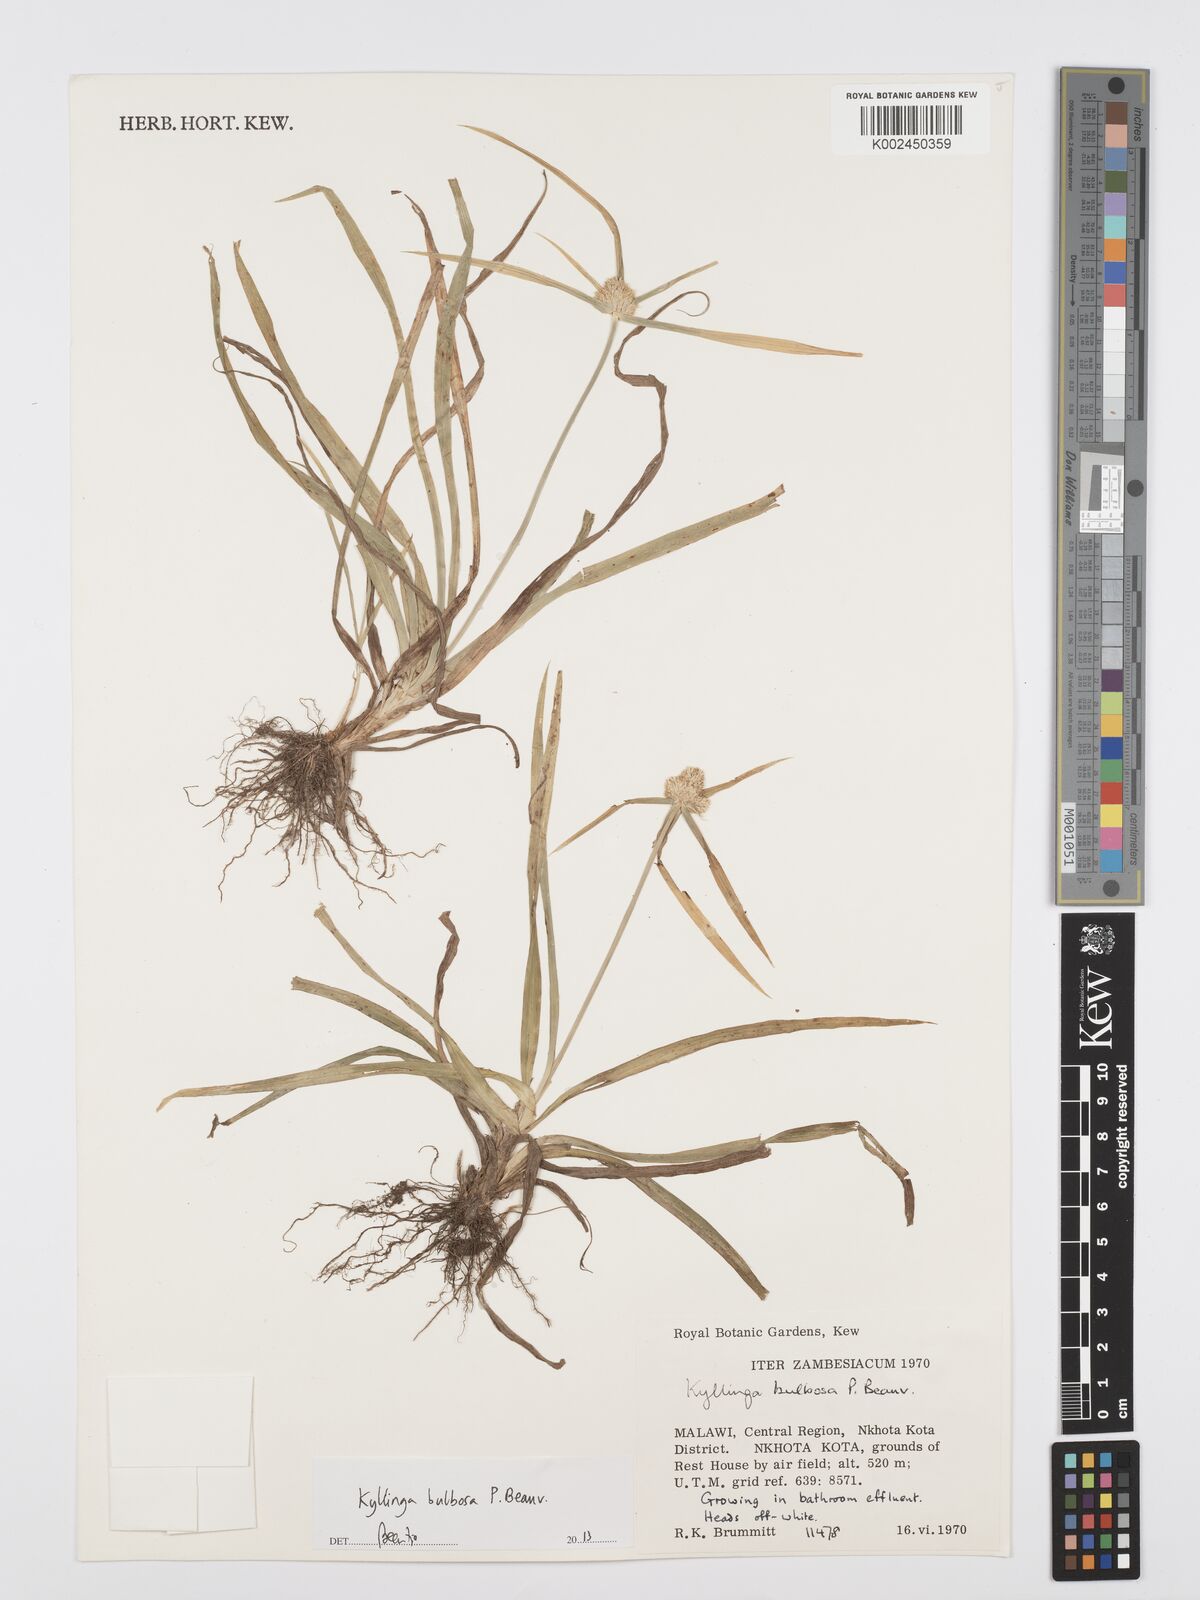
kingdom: Plantae
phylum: Tracheophyta
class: Liliopsida
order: Poales
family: Cyperaceae
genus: Cyperus
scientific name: Cyperus
